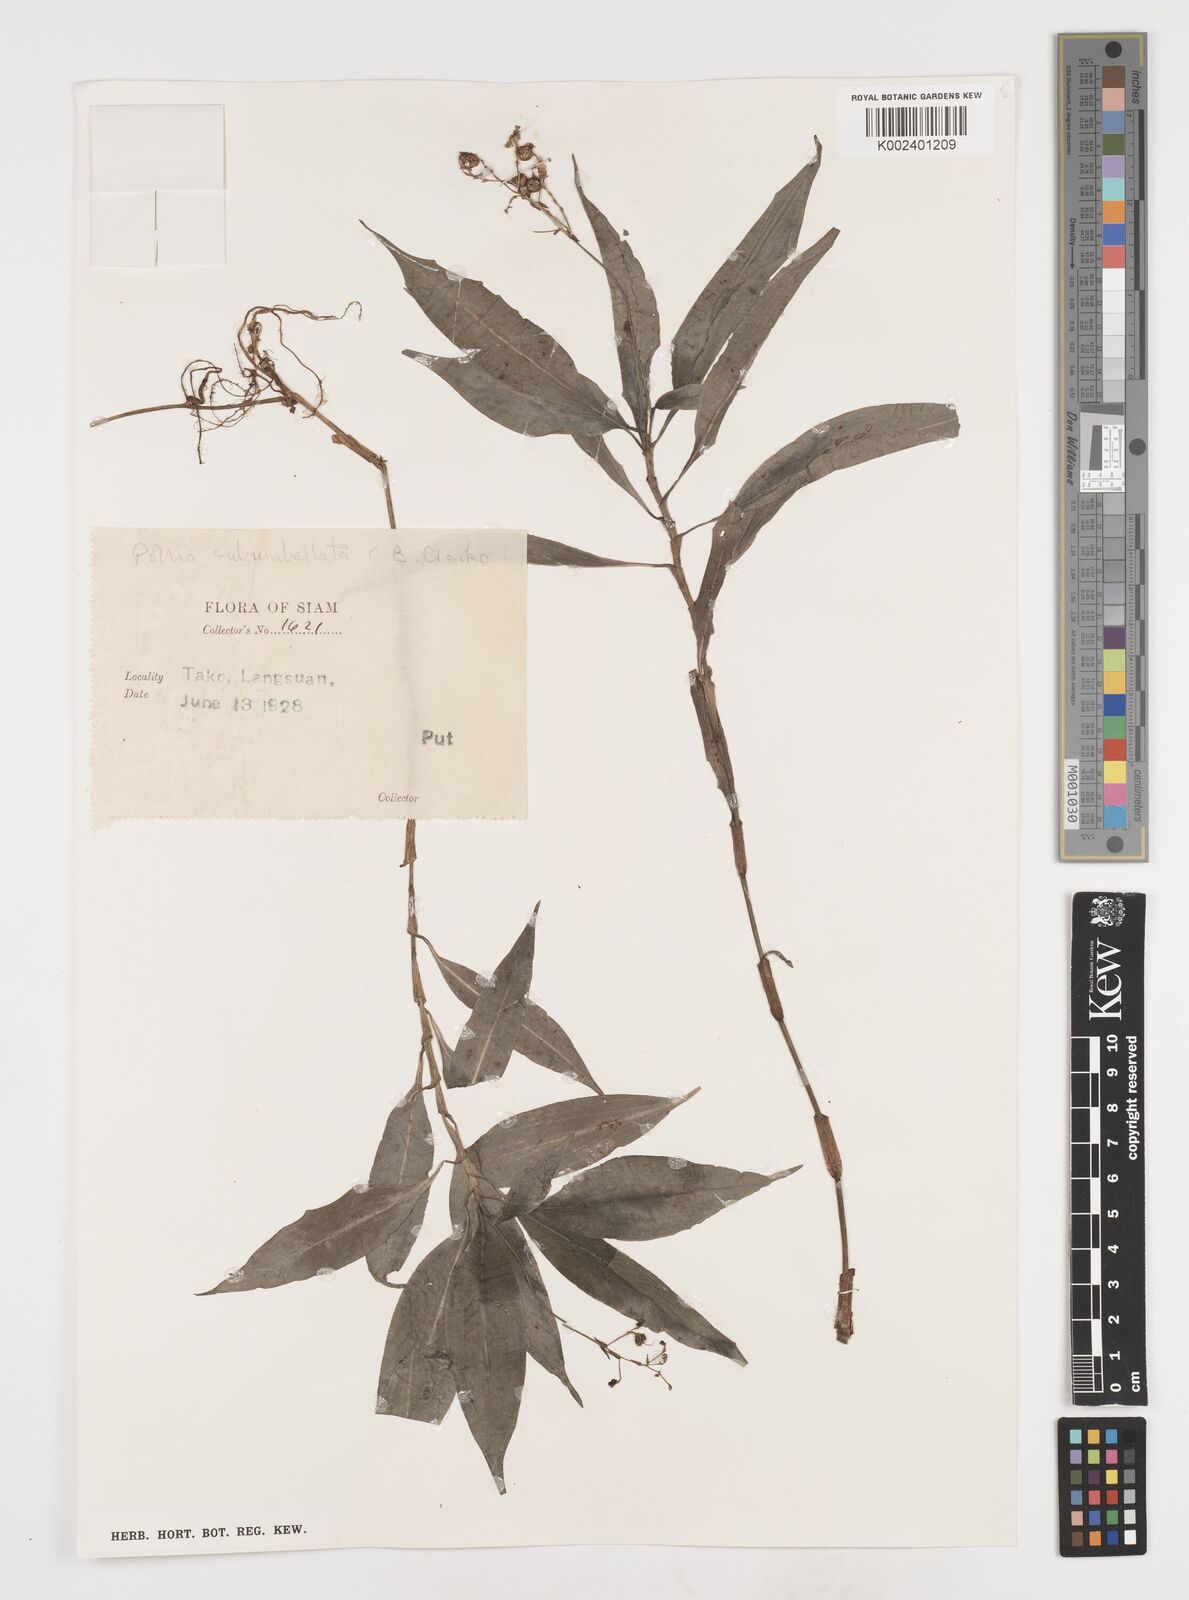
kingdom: Plantae
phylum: Tracheophyta
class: Liliopsida
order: Commelinales
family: Commelinaceae
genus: Pollia
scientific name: Pollia secundiflora
